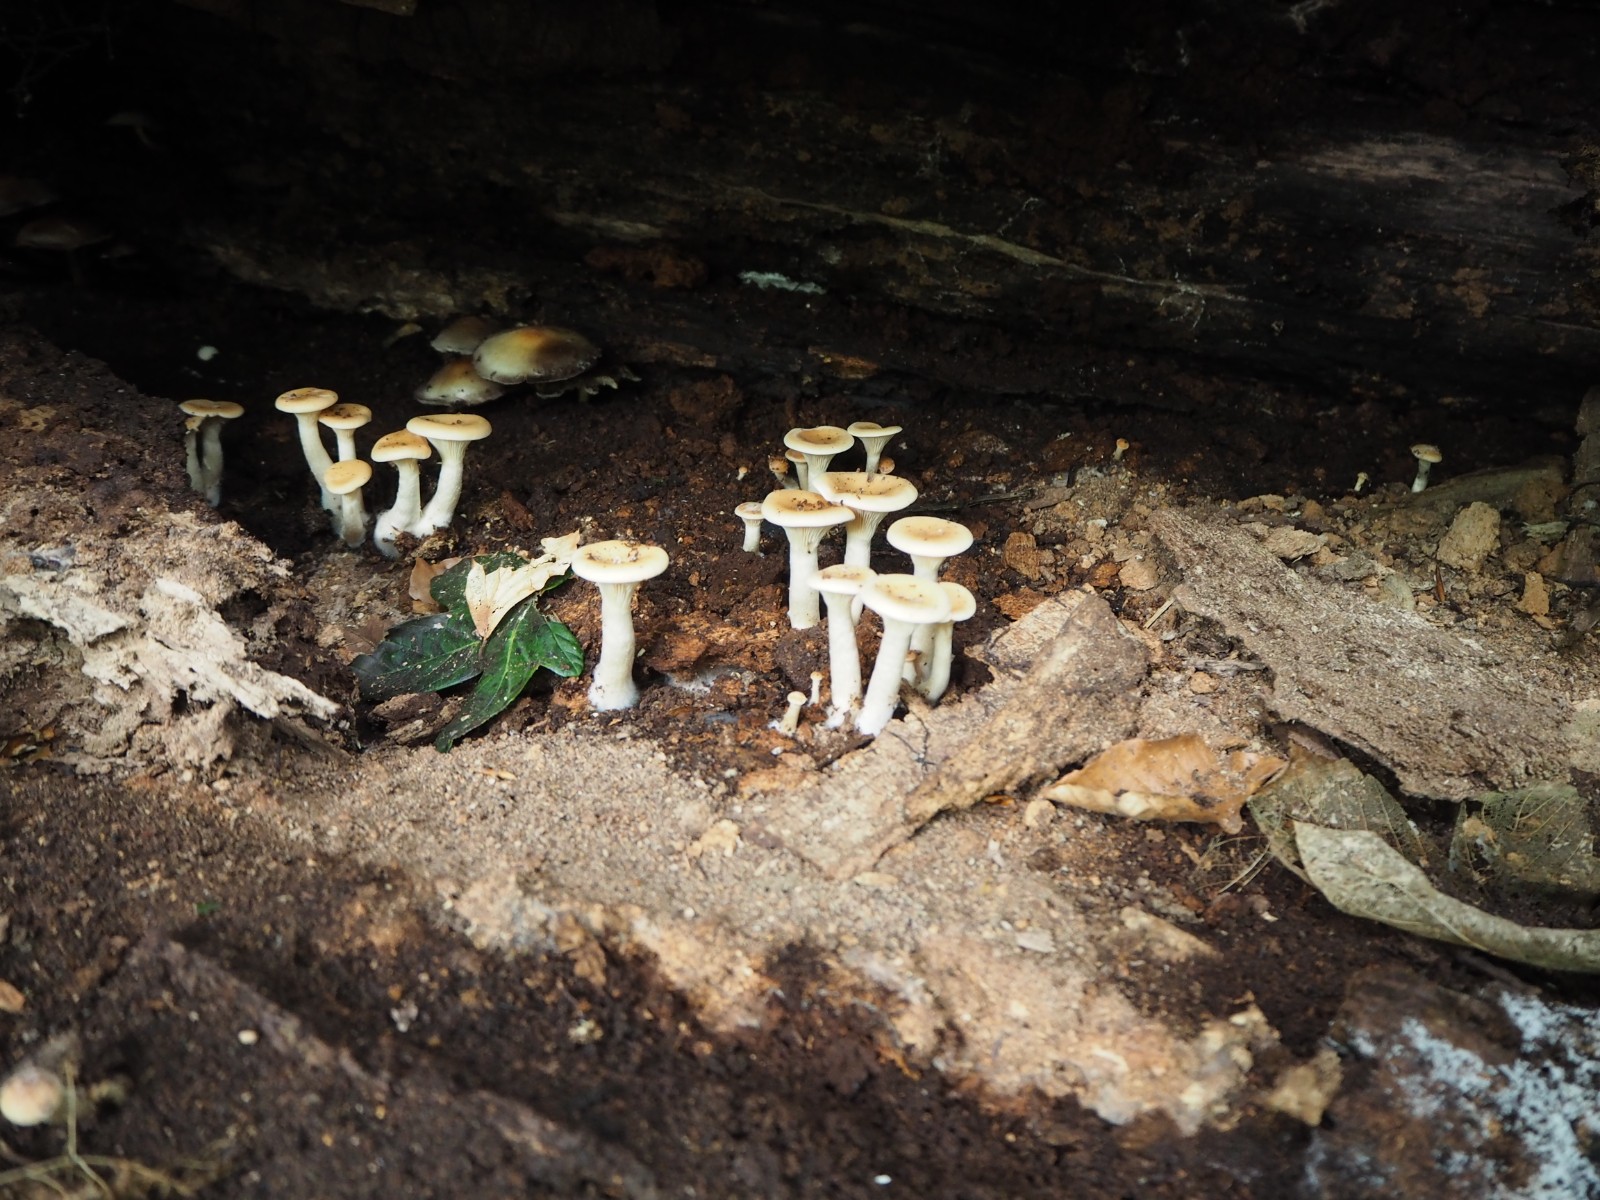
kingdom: Fungi
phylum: Basidiomycota
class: Agaricomycetes
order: Agaricales
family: Tricholomataceae
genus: Paralepista
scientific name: Paralepista gilva
